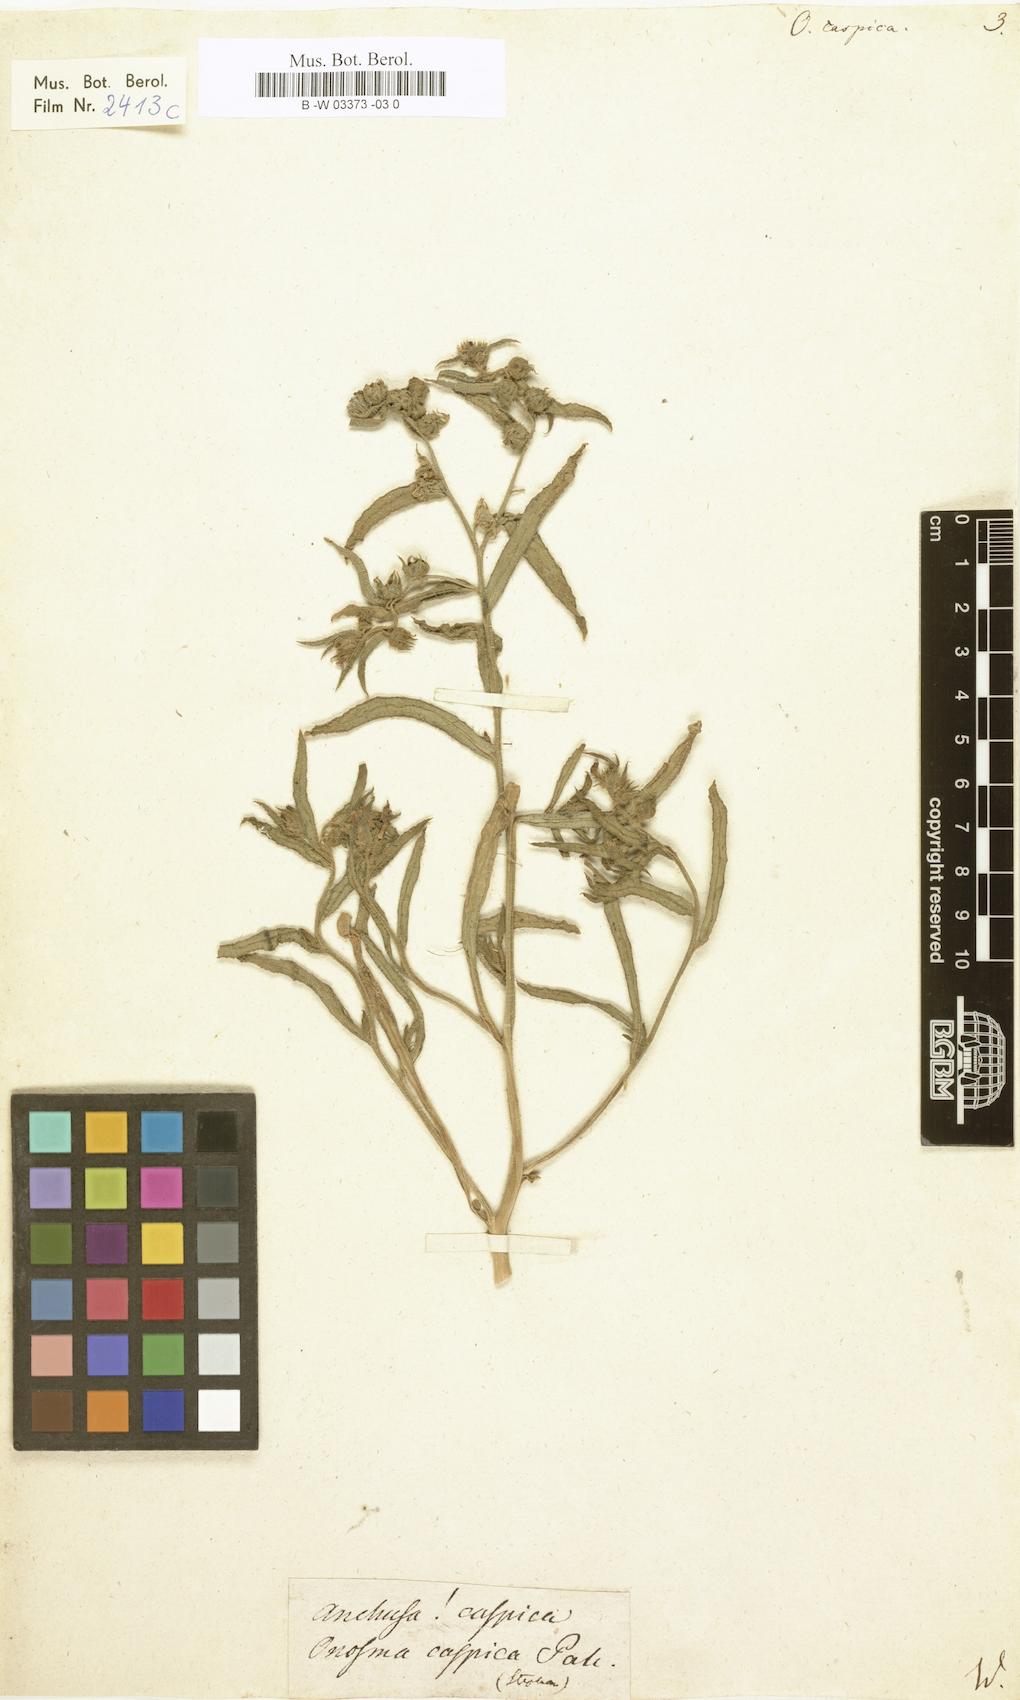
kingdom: Plantae
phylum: Tracheophyta
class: Magnoliopsida
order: Boraginales
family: Boraginaceae
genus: Nonea
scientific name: Nonea caspica
